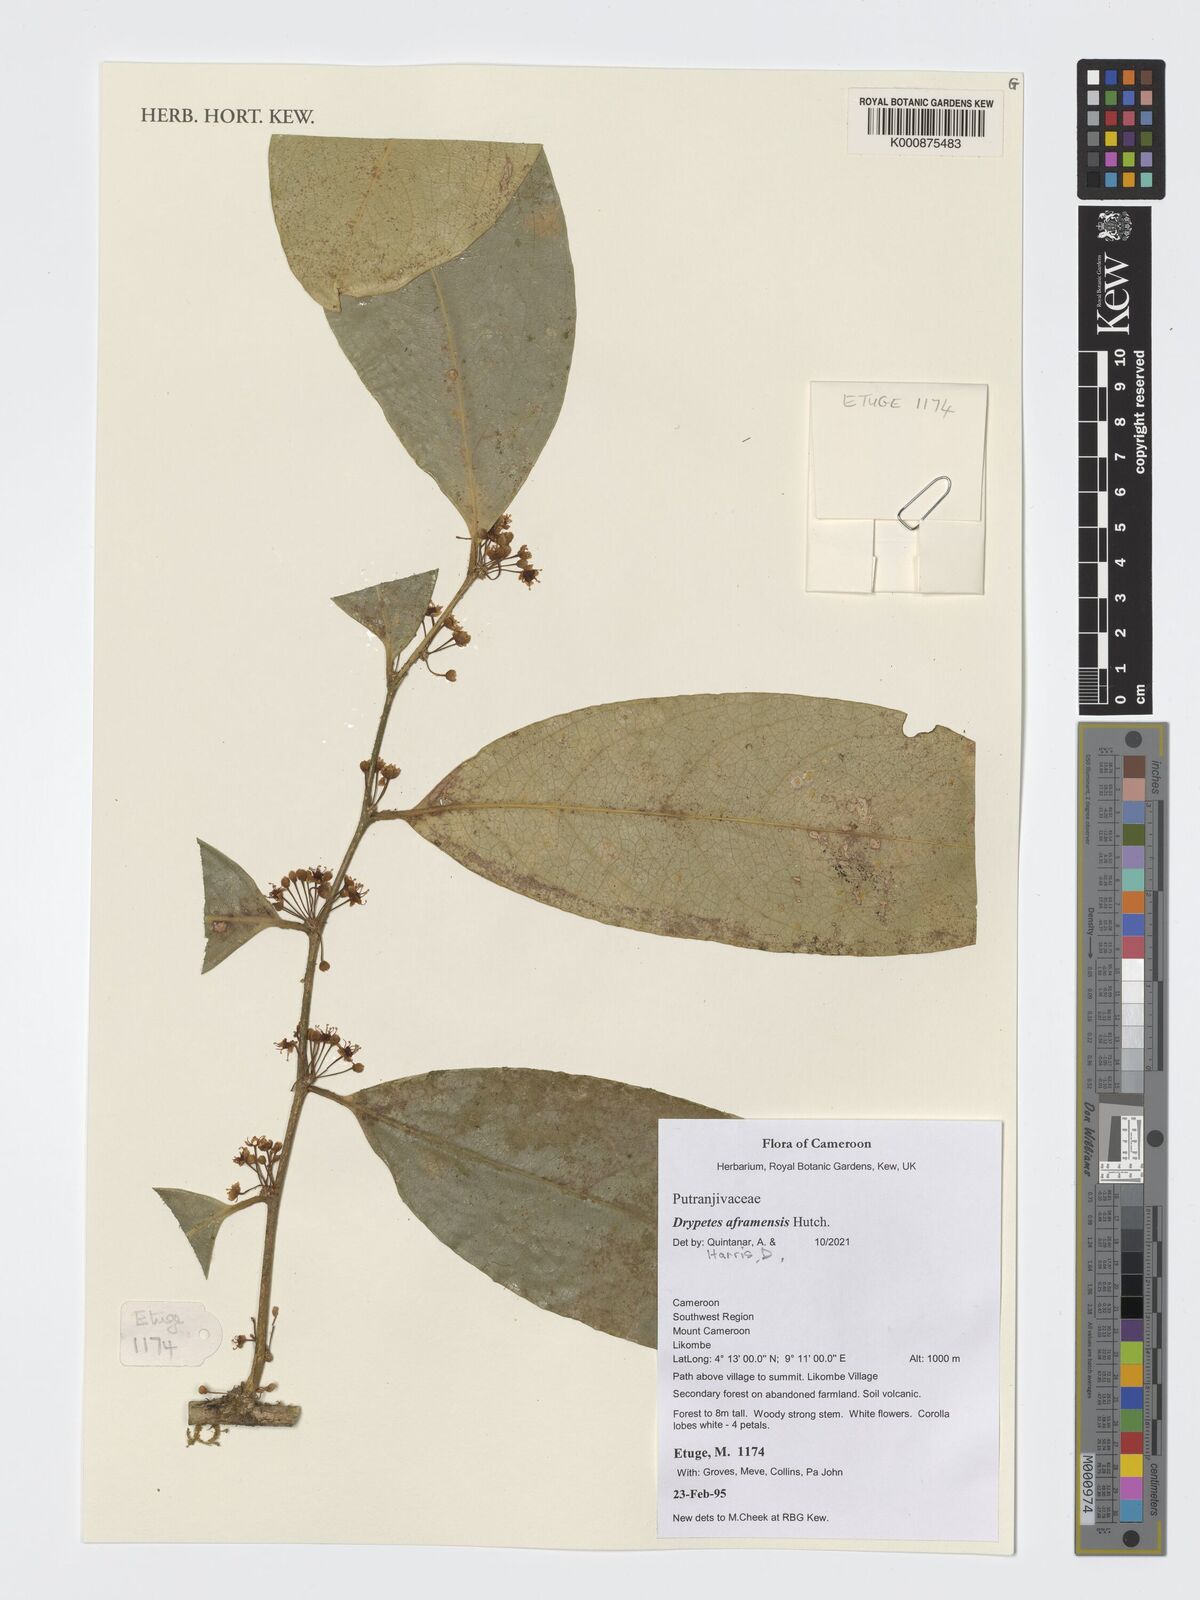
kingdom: Plantae
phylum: Tracheophyta
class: Magnoliopsida
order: Malpighiales
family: Putranjivaceae
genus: Drypetes
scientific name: Drypetes aframensis
